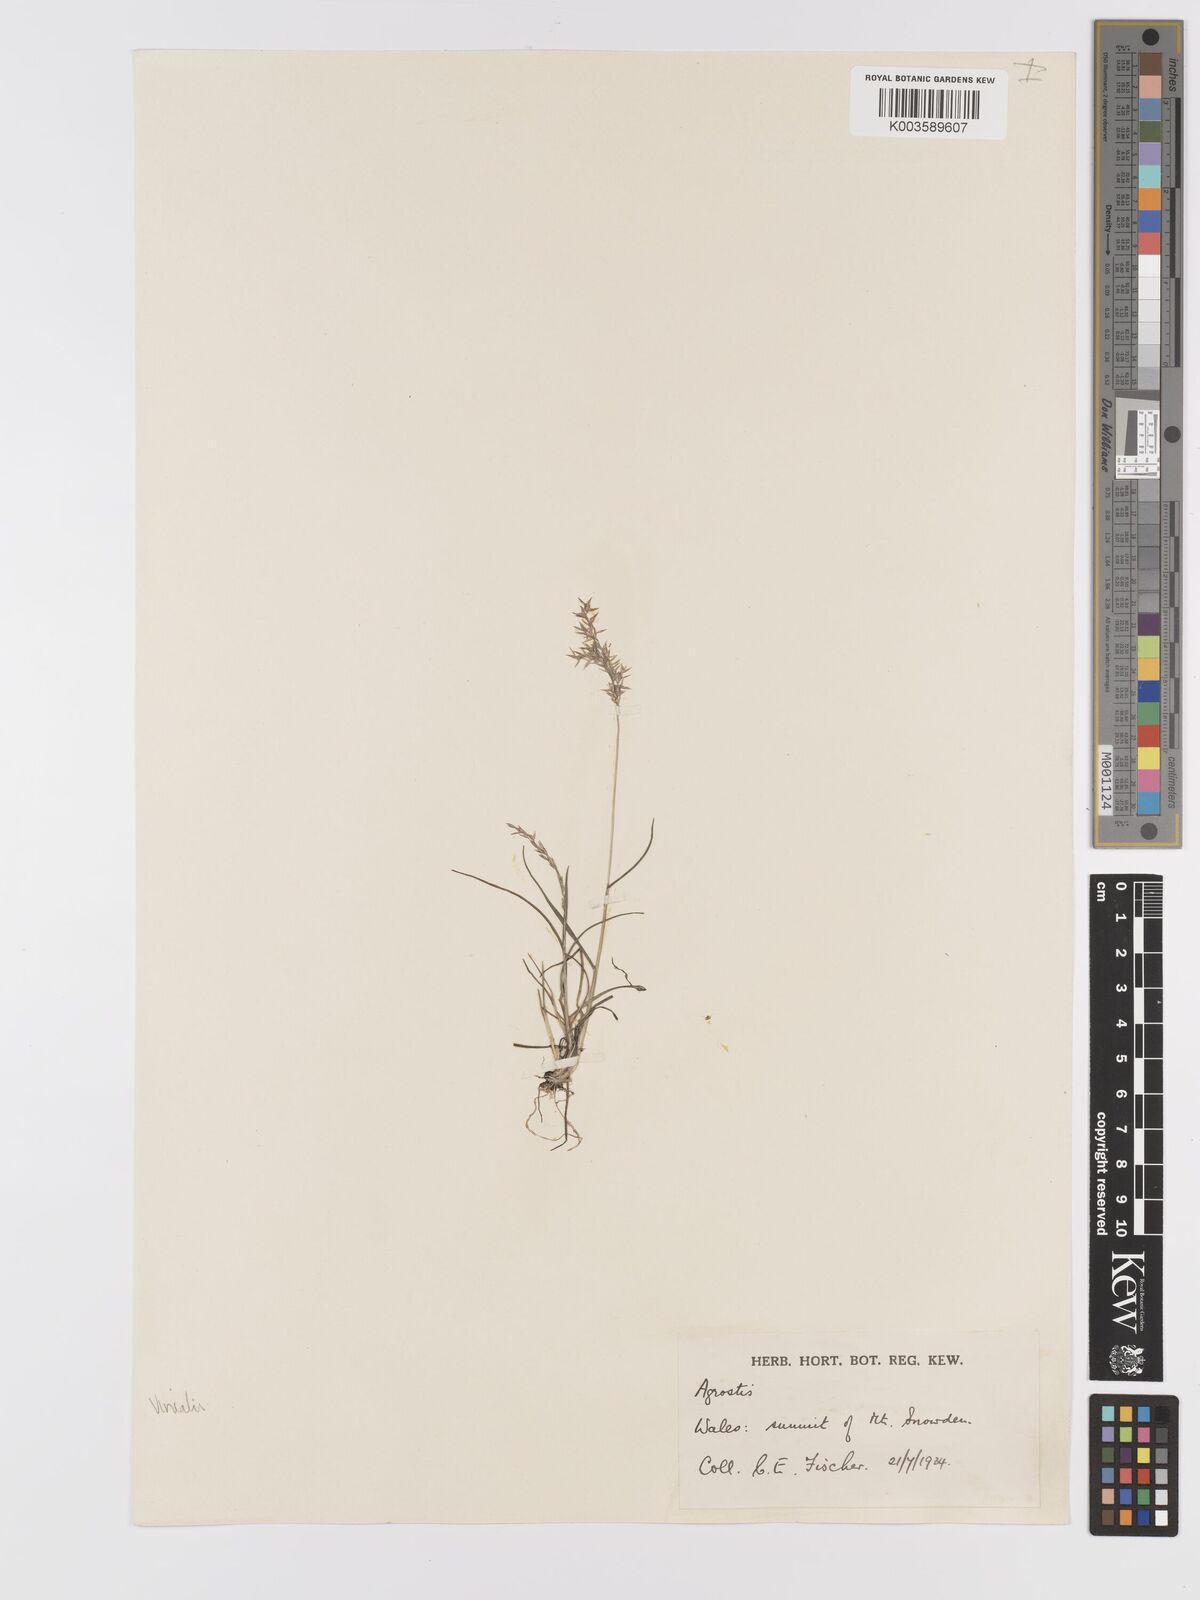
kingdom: Plantae
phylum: Tracheophyta
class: Liliopsida
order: Poales
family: Poaceae
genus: Agrostis
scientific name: Agrostis
